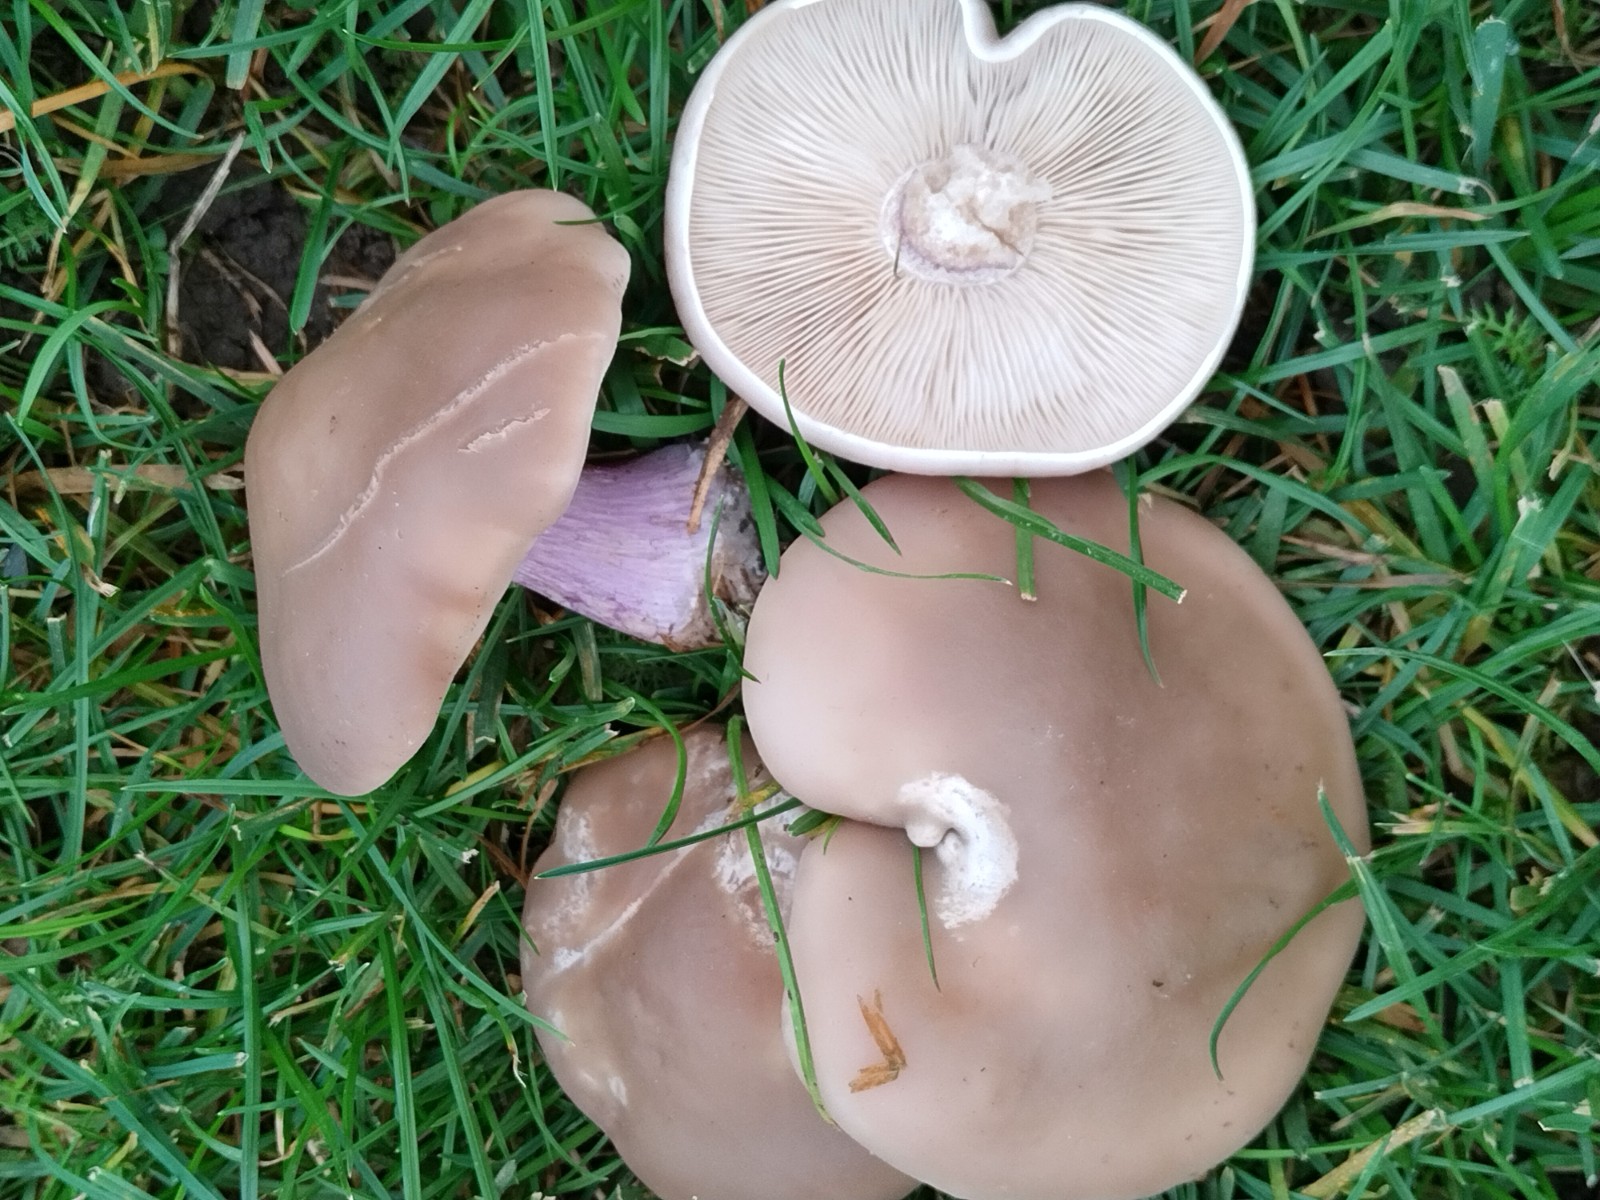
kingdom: Fungi
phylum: Basidiomycota
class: Agaricomycetes
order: Agaricales
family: Tricholomataceae
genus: Lepista
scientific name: Lepista personata
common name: bleg hekseringshat
